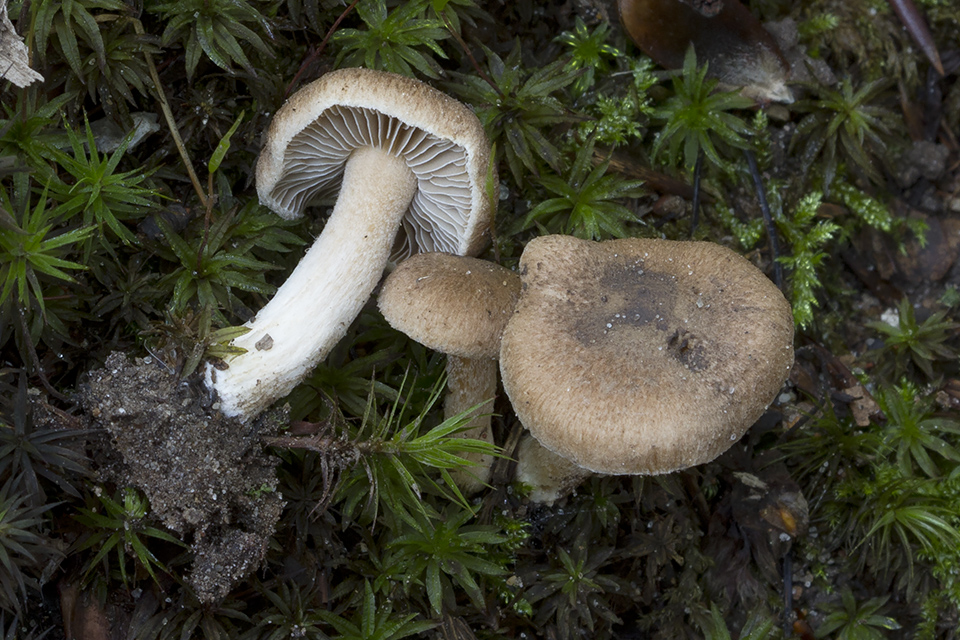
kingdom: Fungi
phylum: Basidiomycota
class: Agaricomycetes
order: Agaricales
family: Inocybaceae
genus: Inocybe
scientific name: Inocybe tigrina
